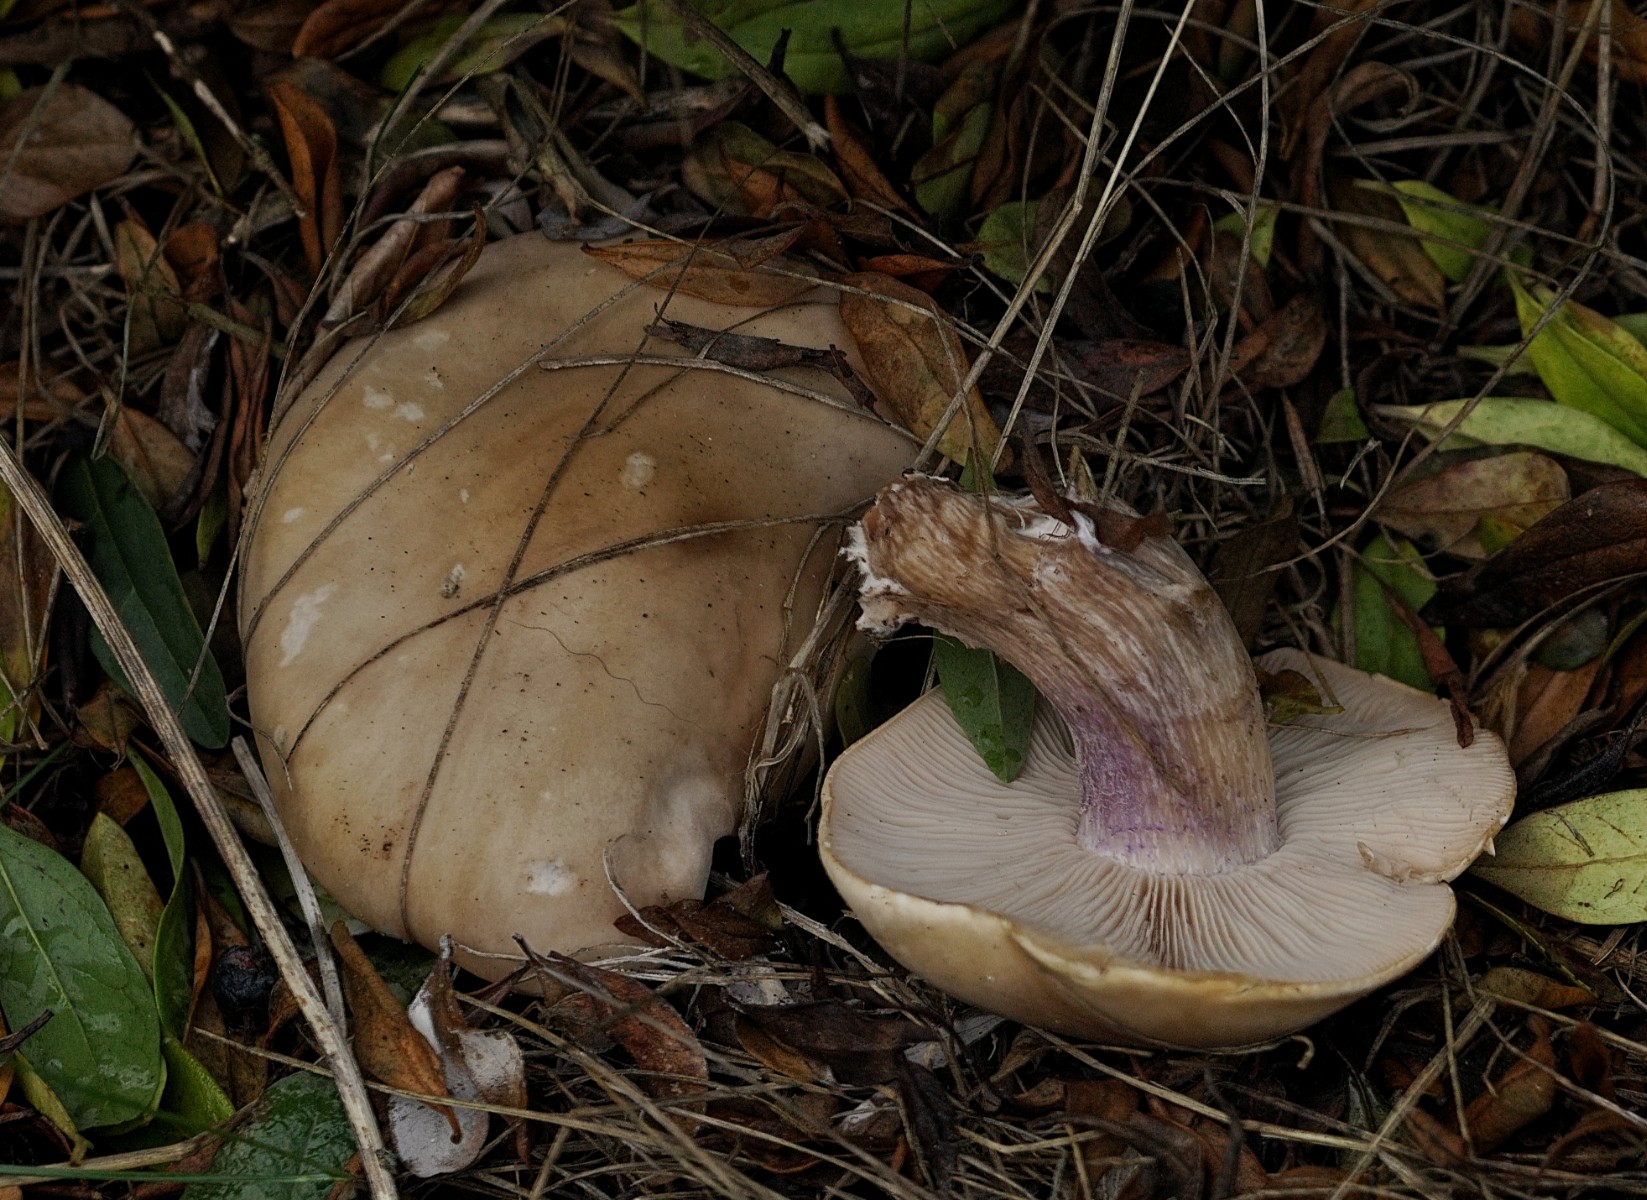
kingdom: Fungi
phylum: Basidiomycota
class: Agaricomycetes
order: Agaricales
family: Tricholomataceae
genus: Lepista
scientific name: Lepista personata
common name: bleg hekseringshat
